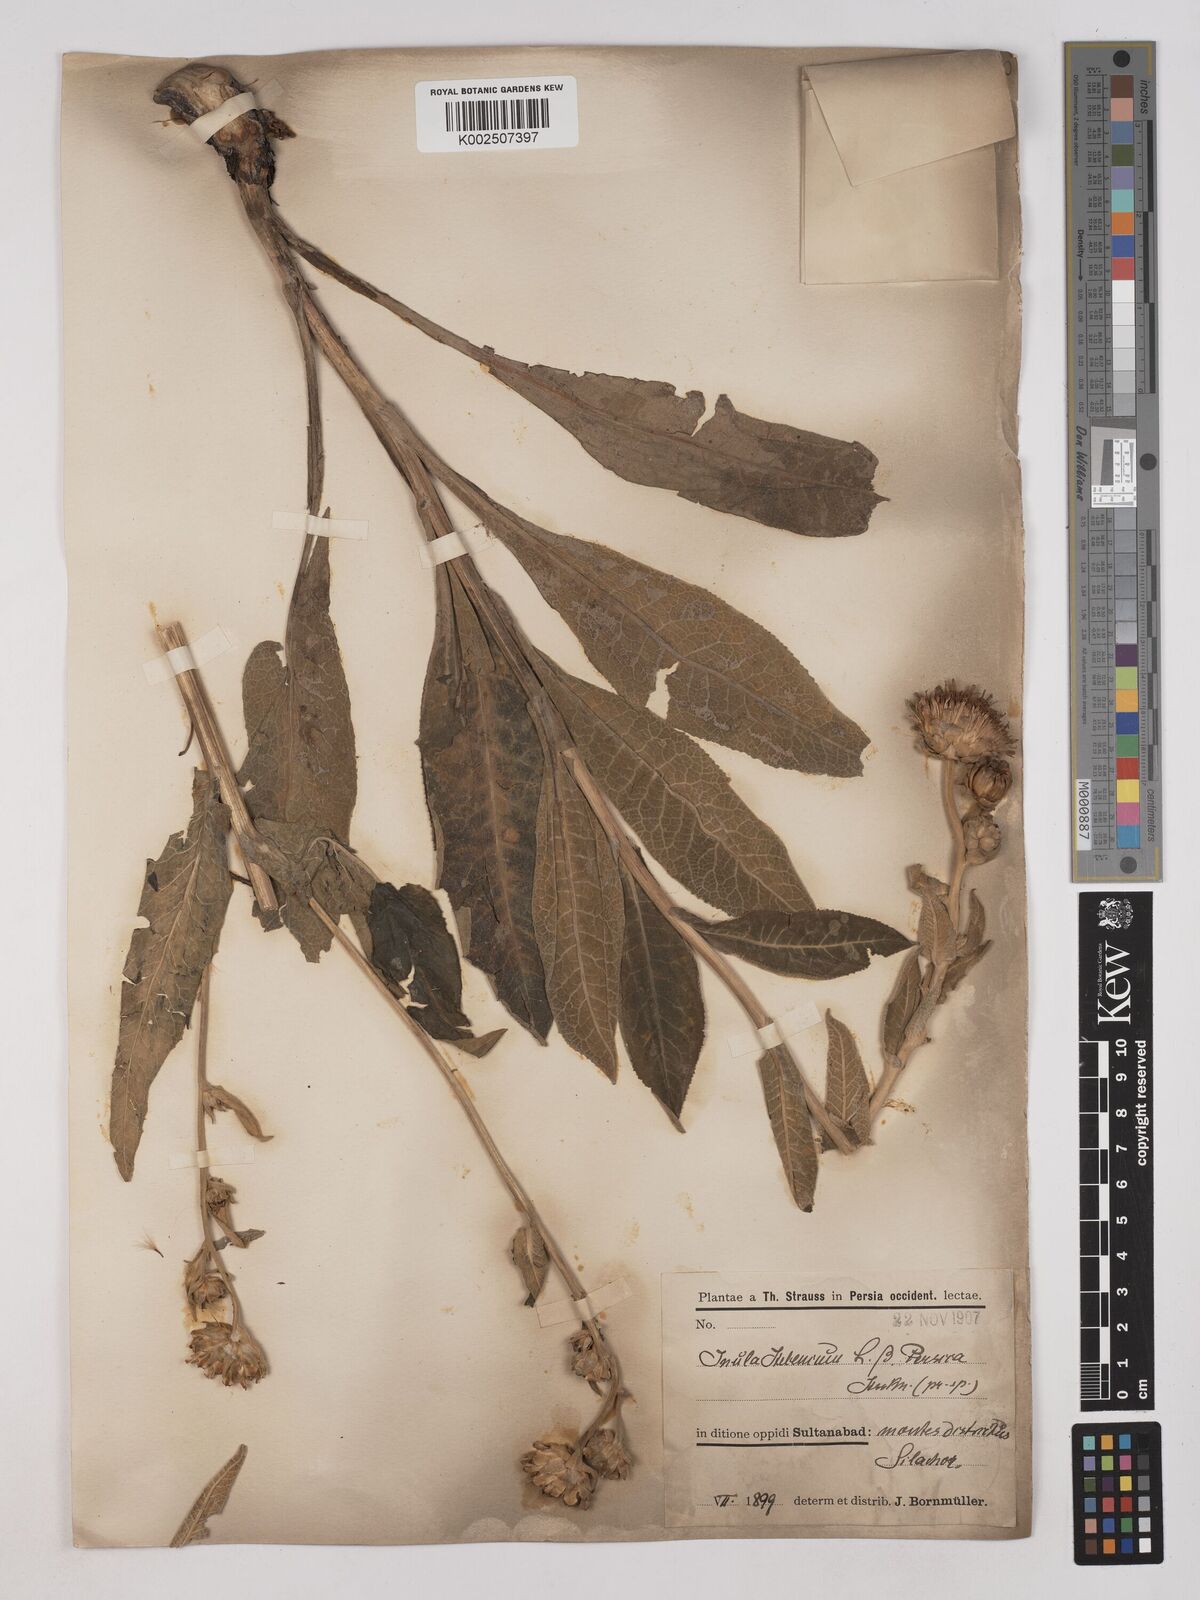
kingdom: Plantae
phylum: Tracheophyta
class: Magnoliopsida
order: Asterales
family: Asteraceae
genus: Inula
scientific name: Inula helenium
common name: Elecampane
